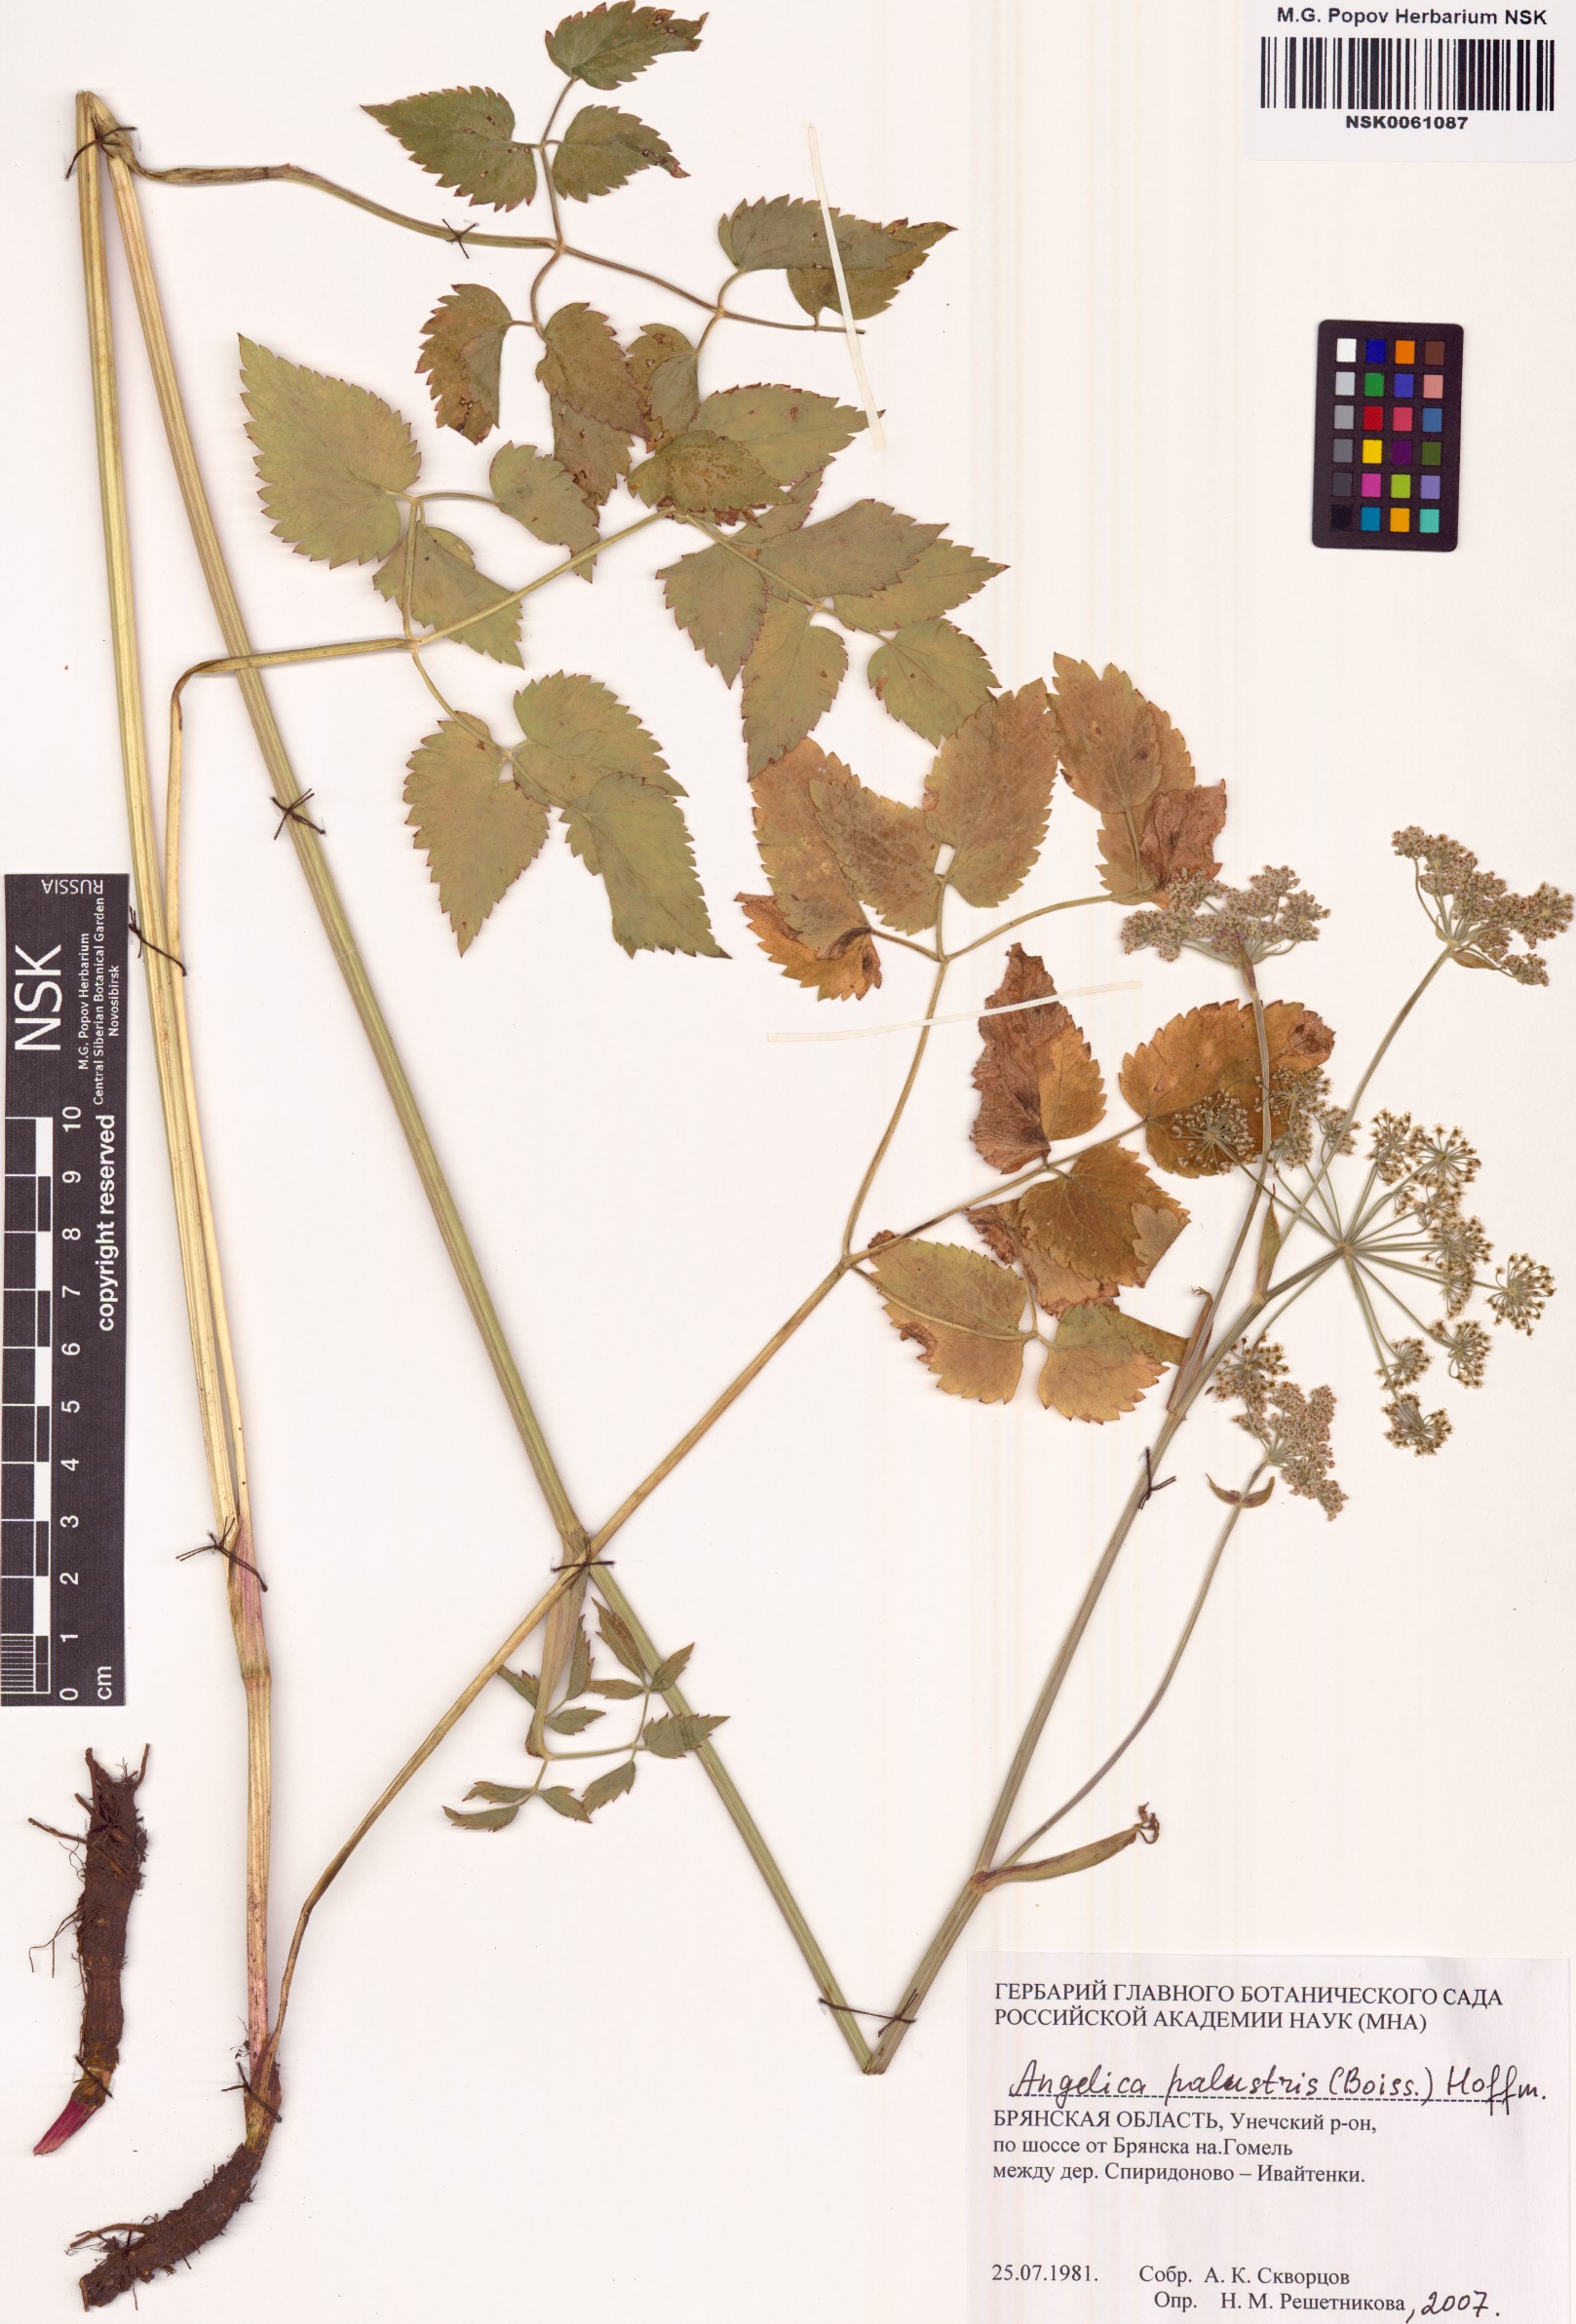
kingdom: Plantae
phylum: Tracheophyta
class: Magnoliopsida
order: Apiales
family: Apiaceae
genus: Ostericum
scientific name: Ostericum palustre
